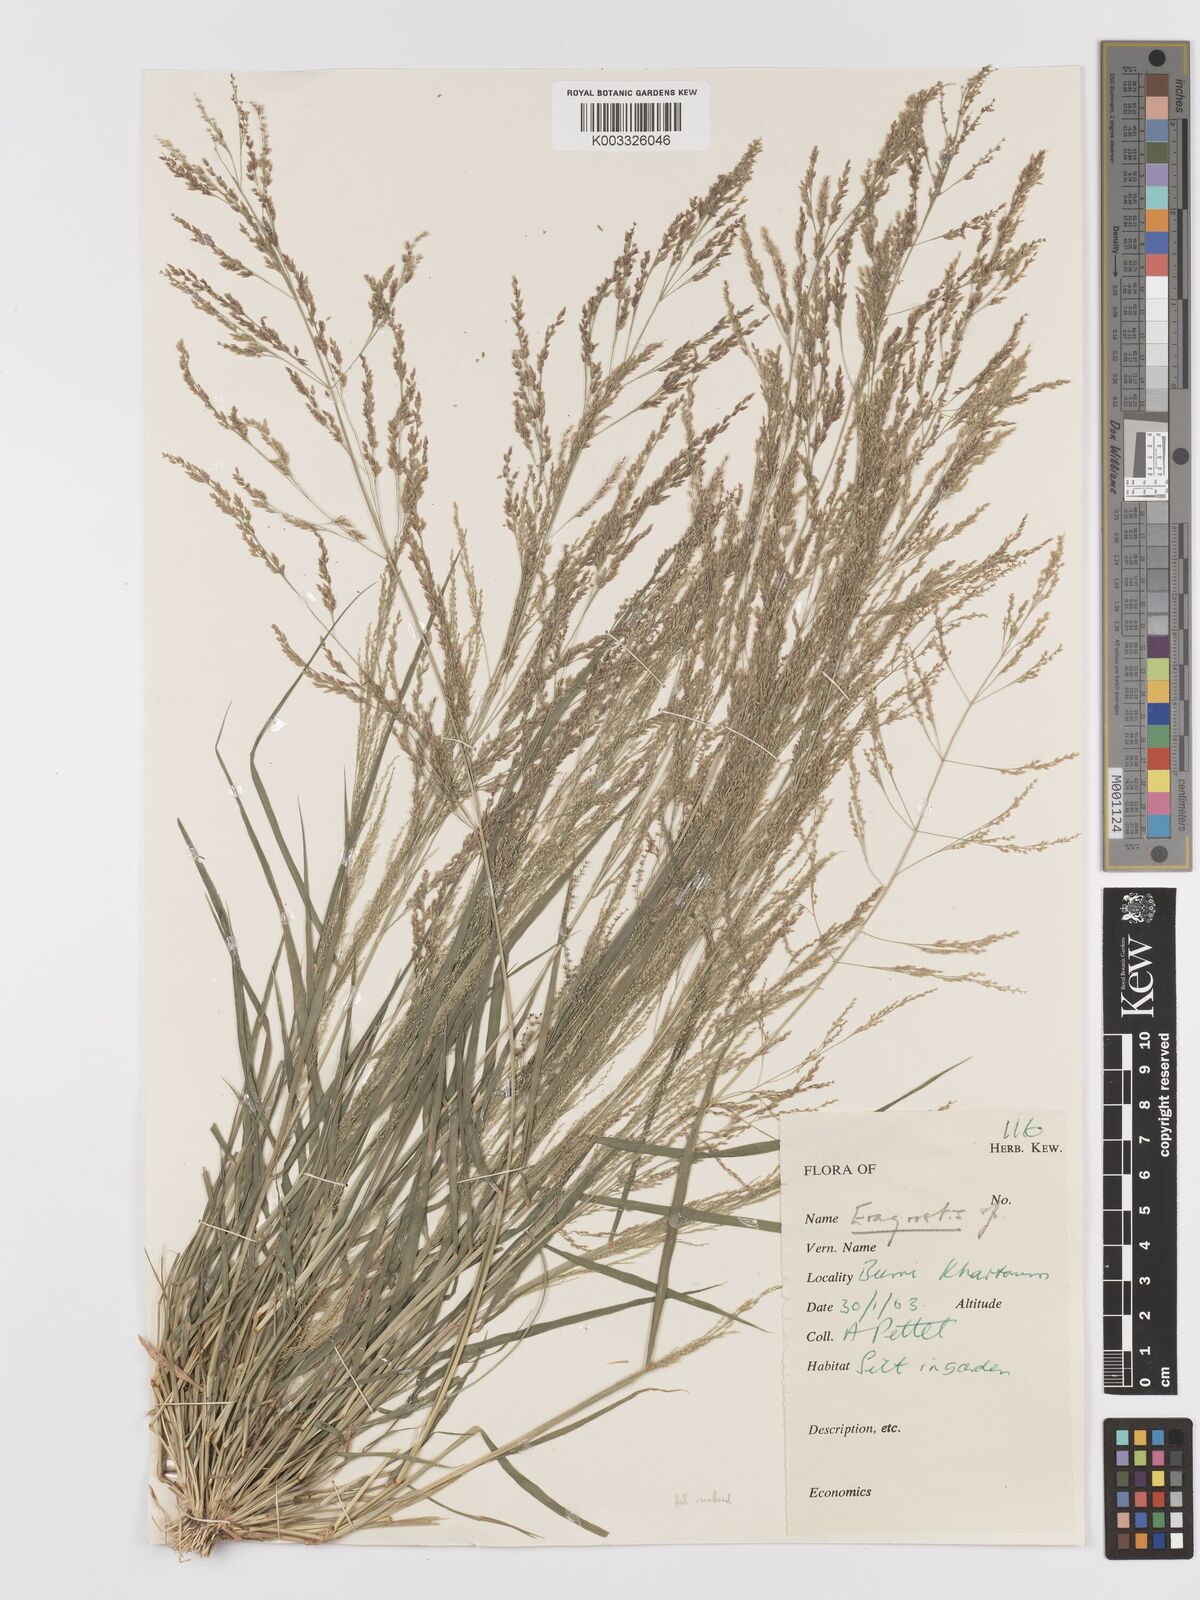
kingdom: Plantae
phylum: Tracheophyta
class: Liliopsida
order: Poales
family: Poaceae
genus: Eragrostis
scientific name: Eragrostis japonica
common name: Pond lovegrass
